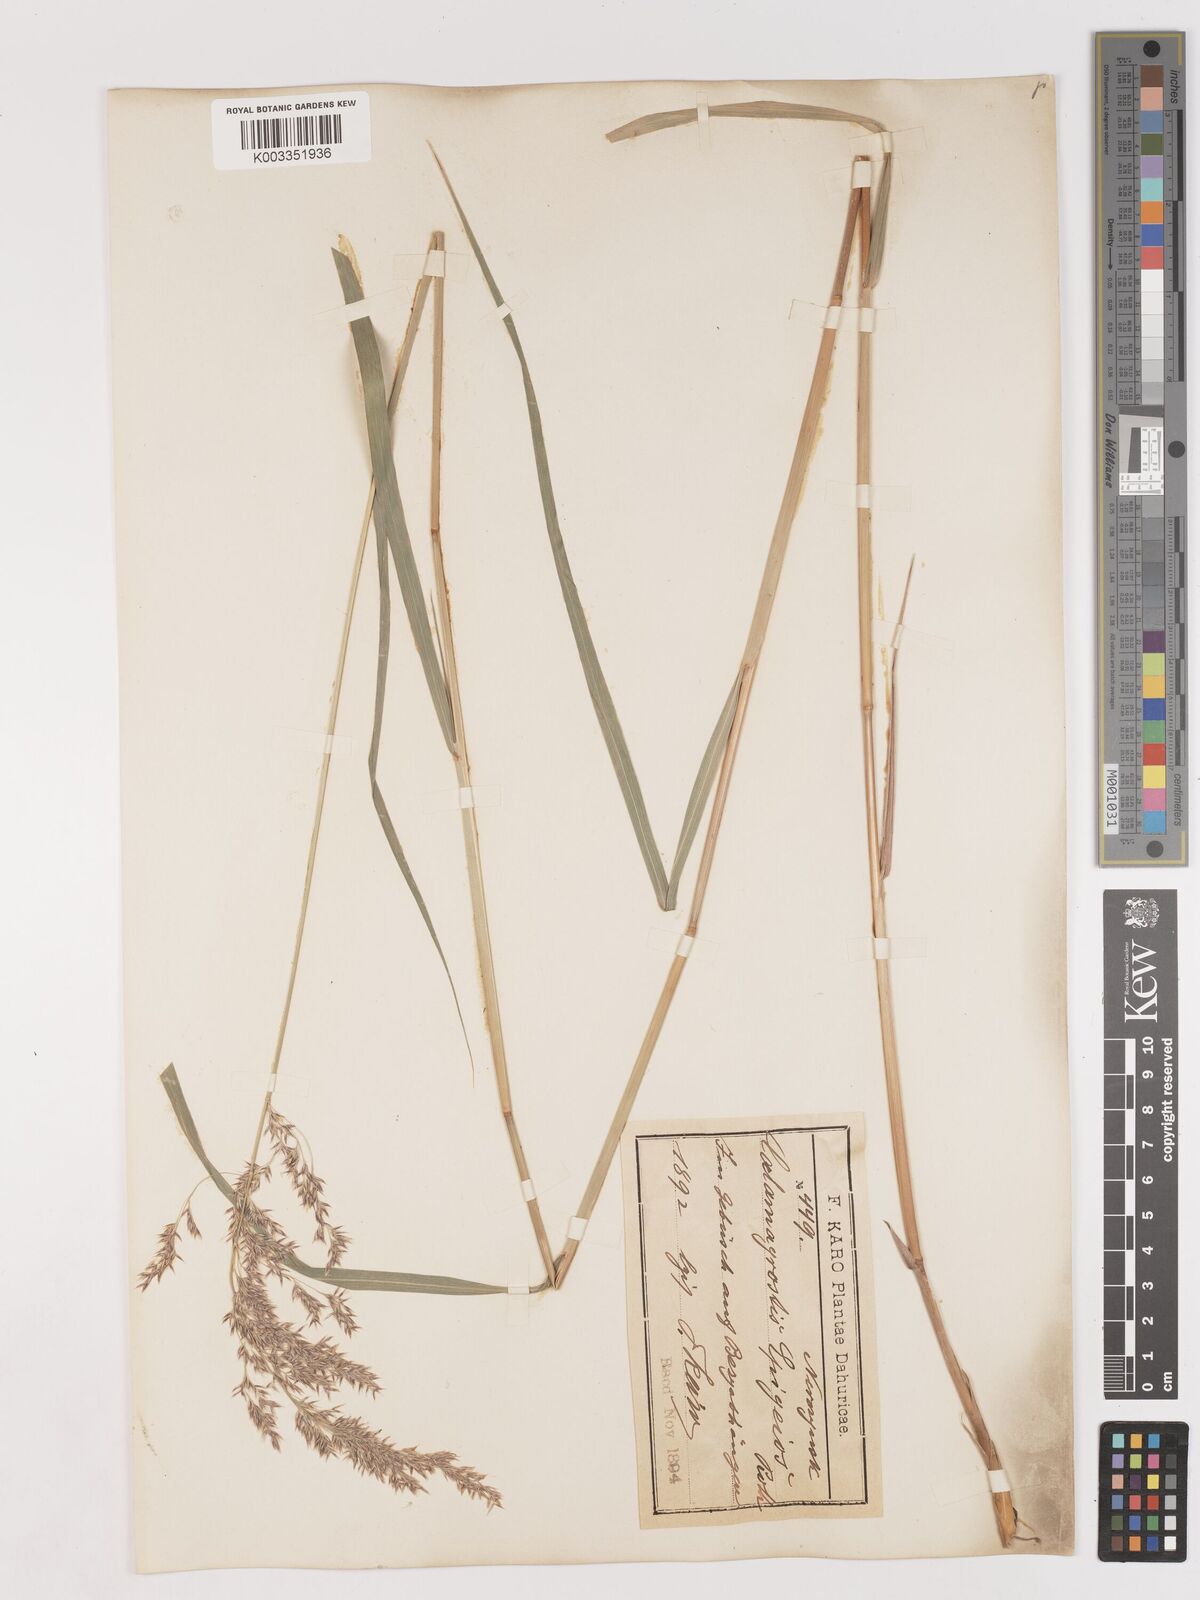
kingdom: Plantae
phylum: Tracheophyta
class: Liliopsida
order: Poales
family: Poaceae
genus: Calamagrostis
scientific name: Calamagrostis epigejos
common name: Wood small-reed
